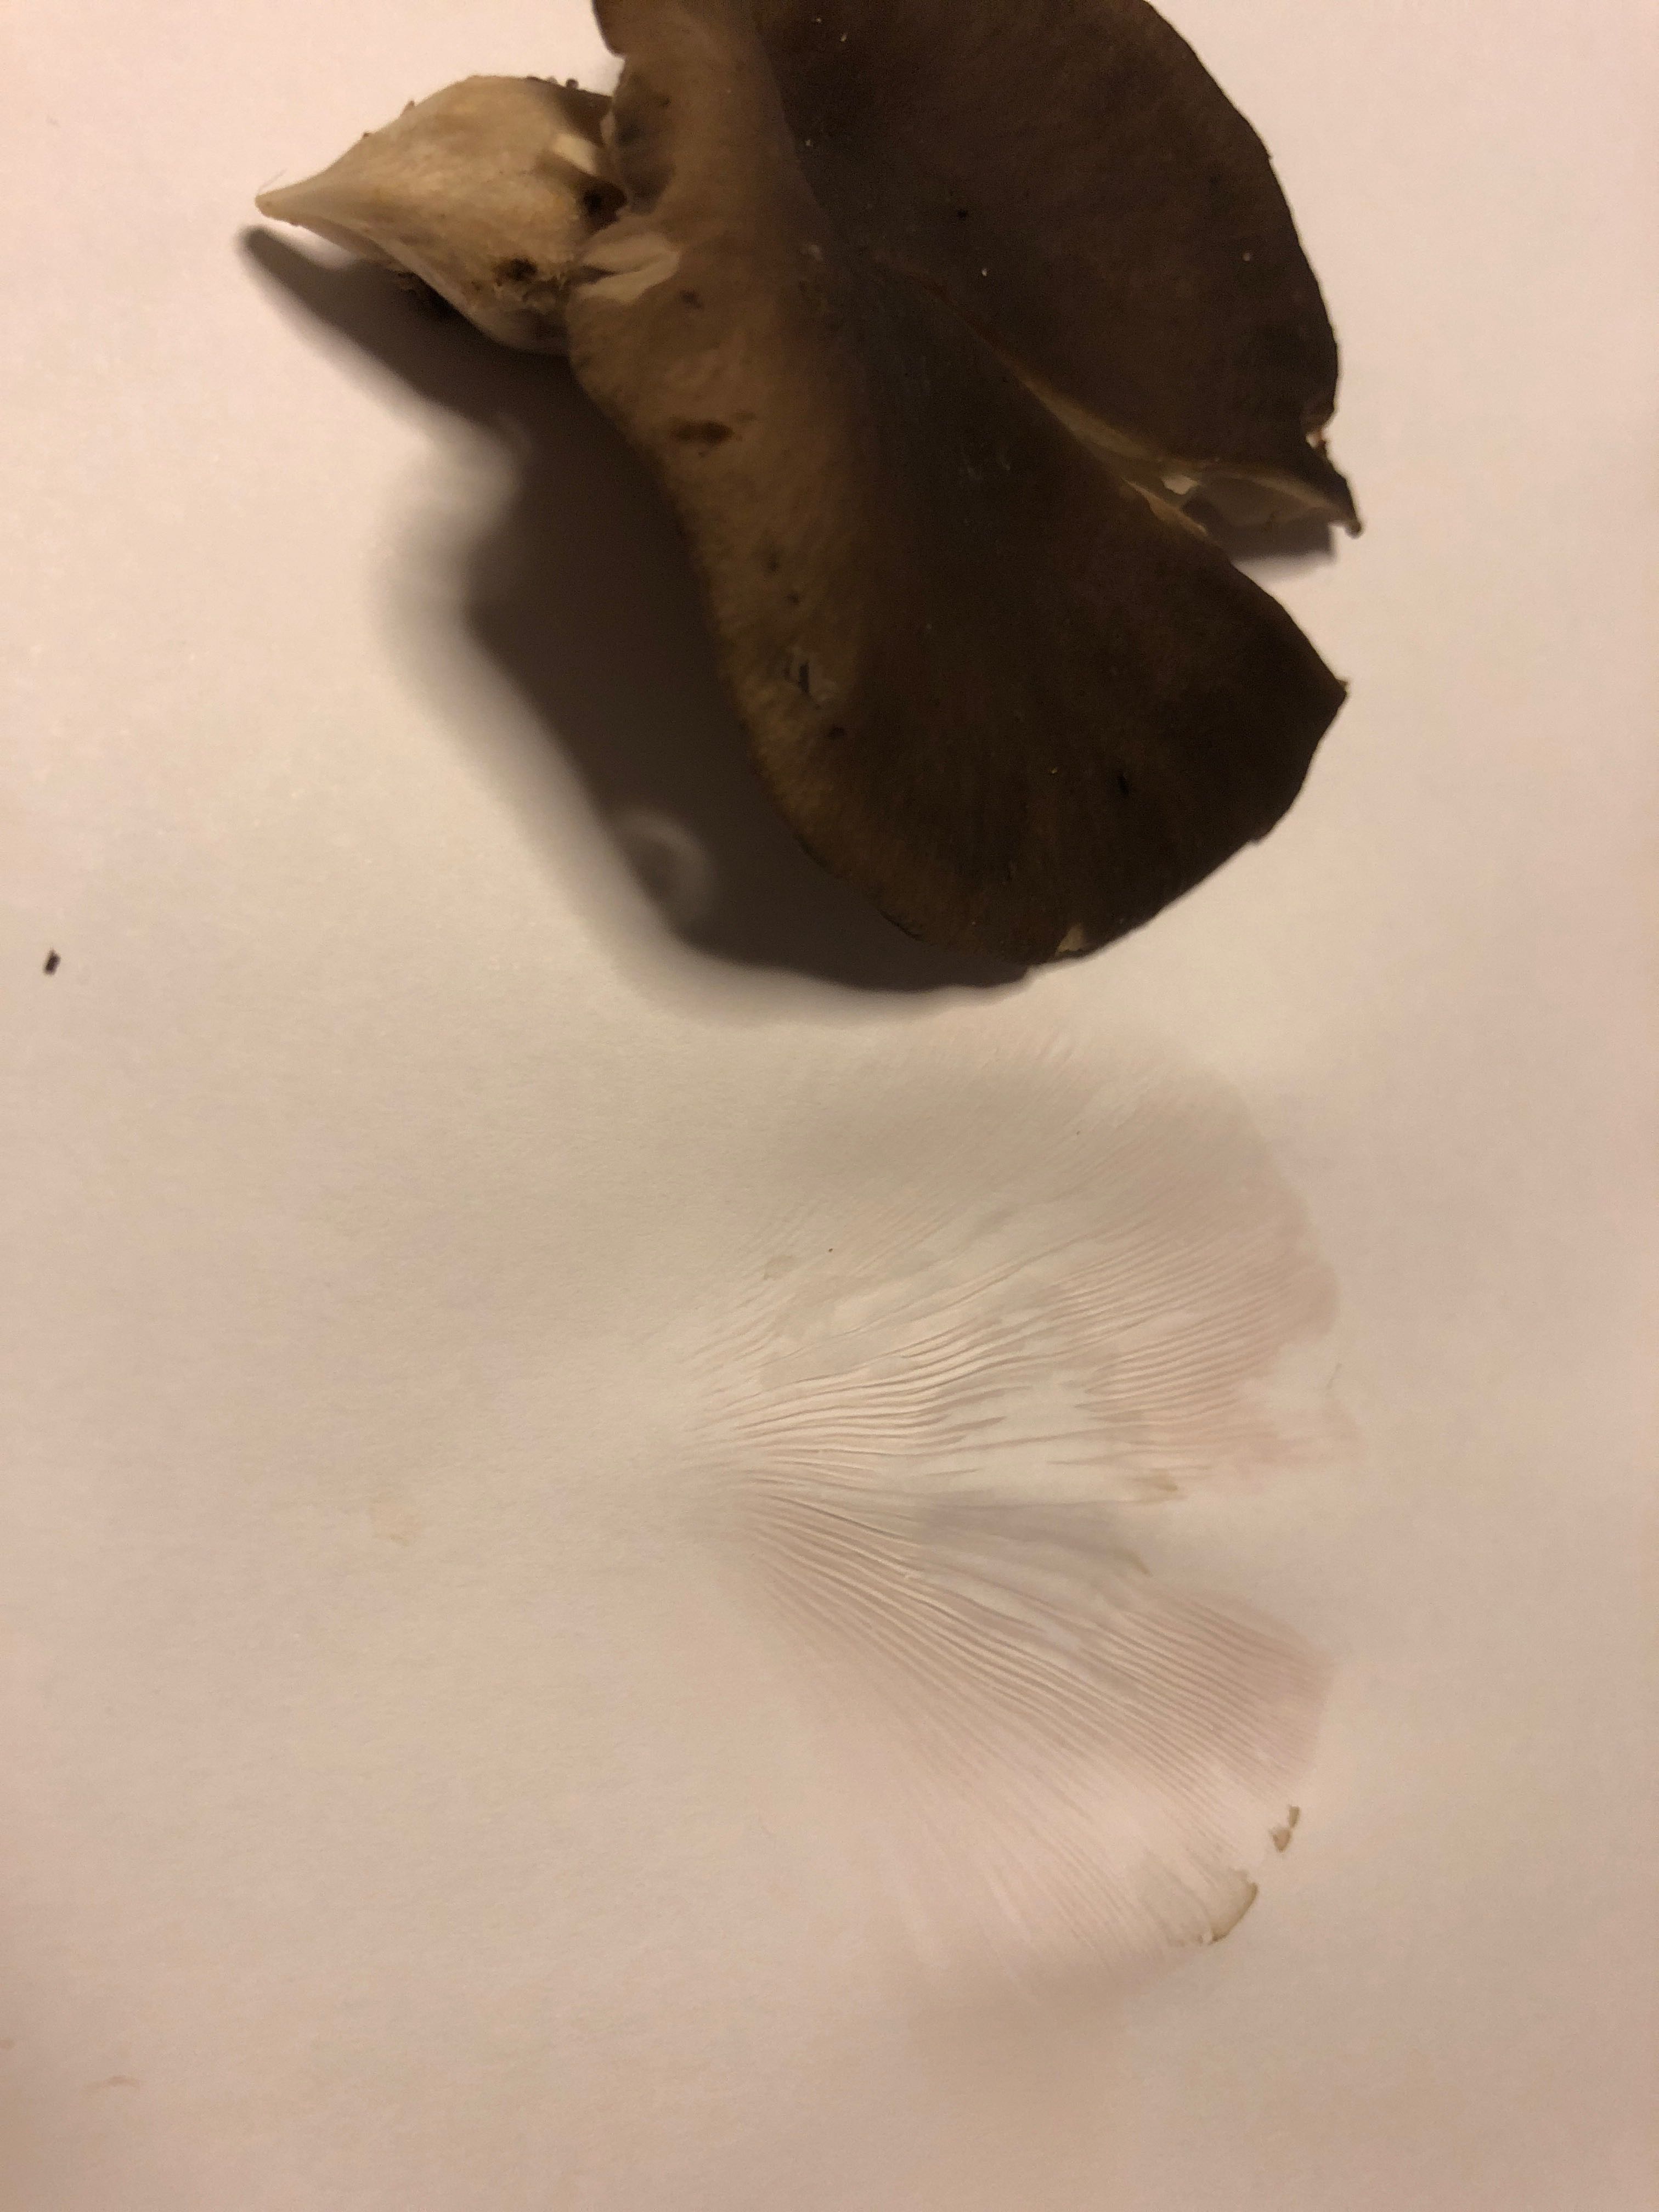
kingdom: Fungi
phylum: Basidiomycota
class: Agaricomycetes
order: Agaricales
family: Pleurotaceae
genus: Pleurotus
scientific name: Pleurotus ostreatus
